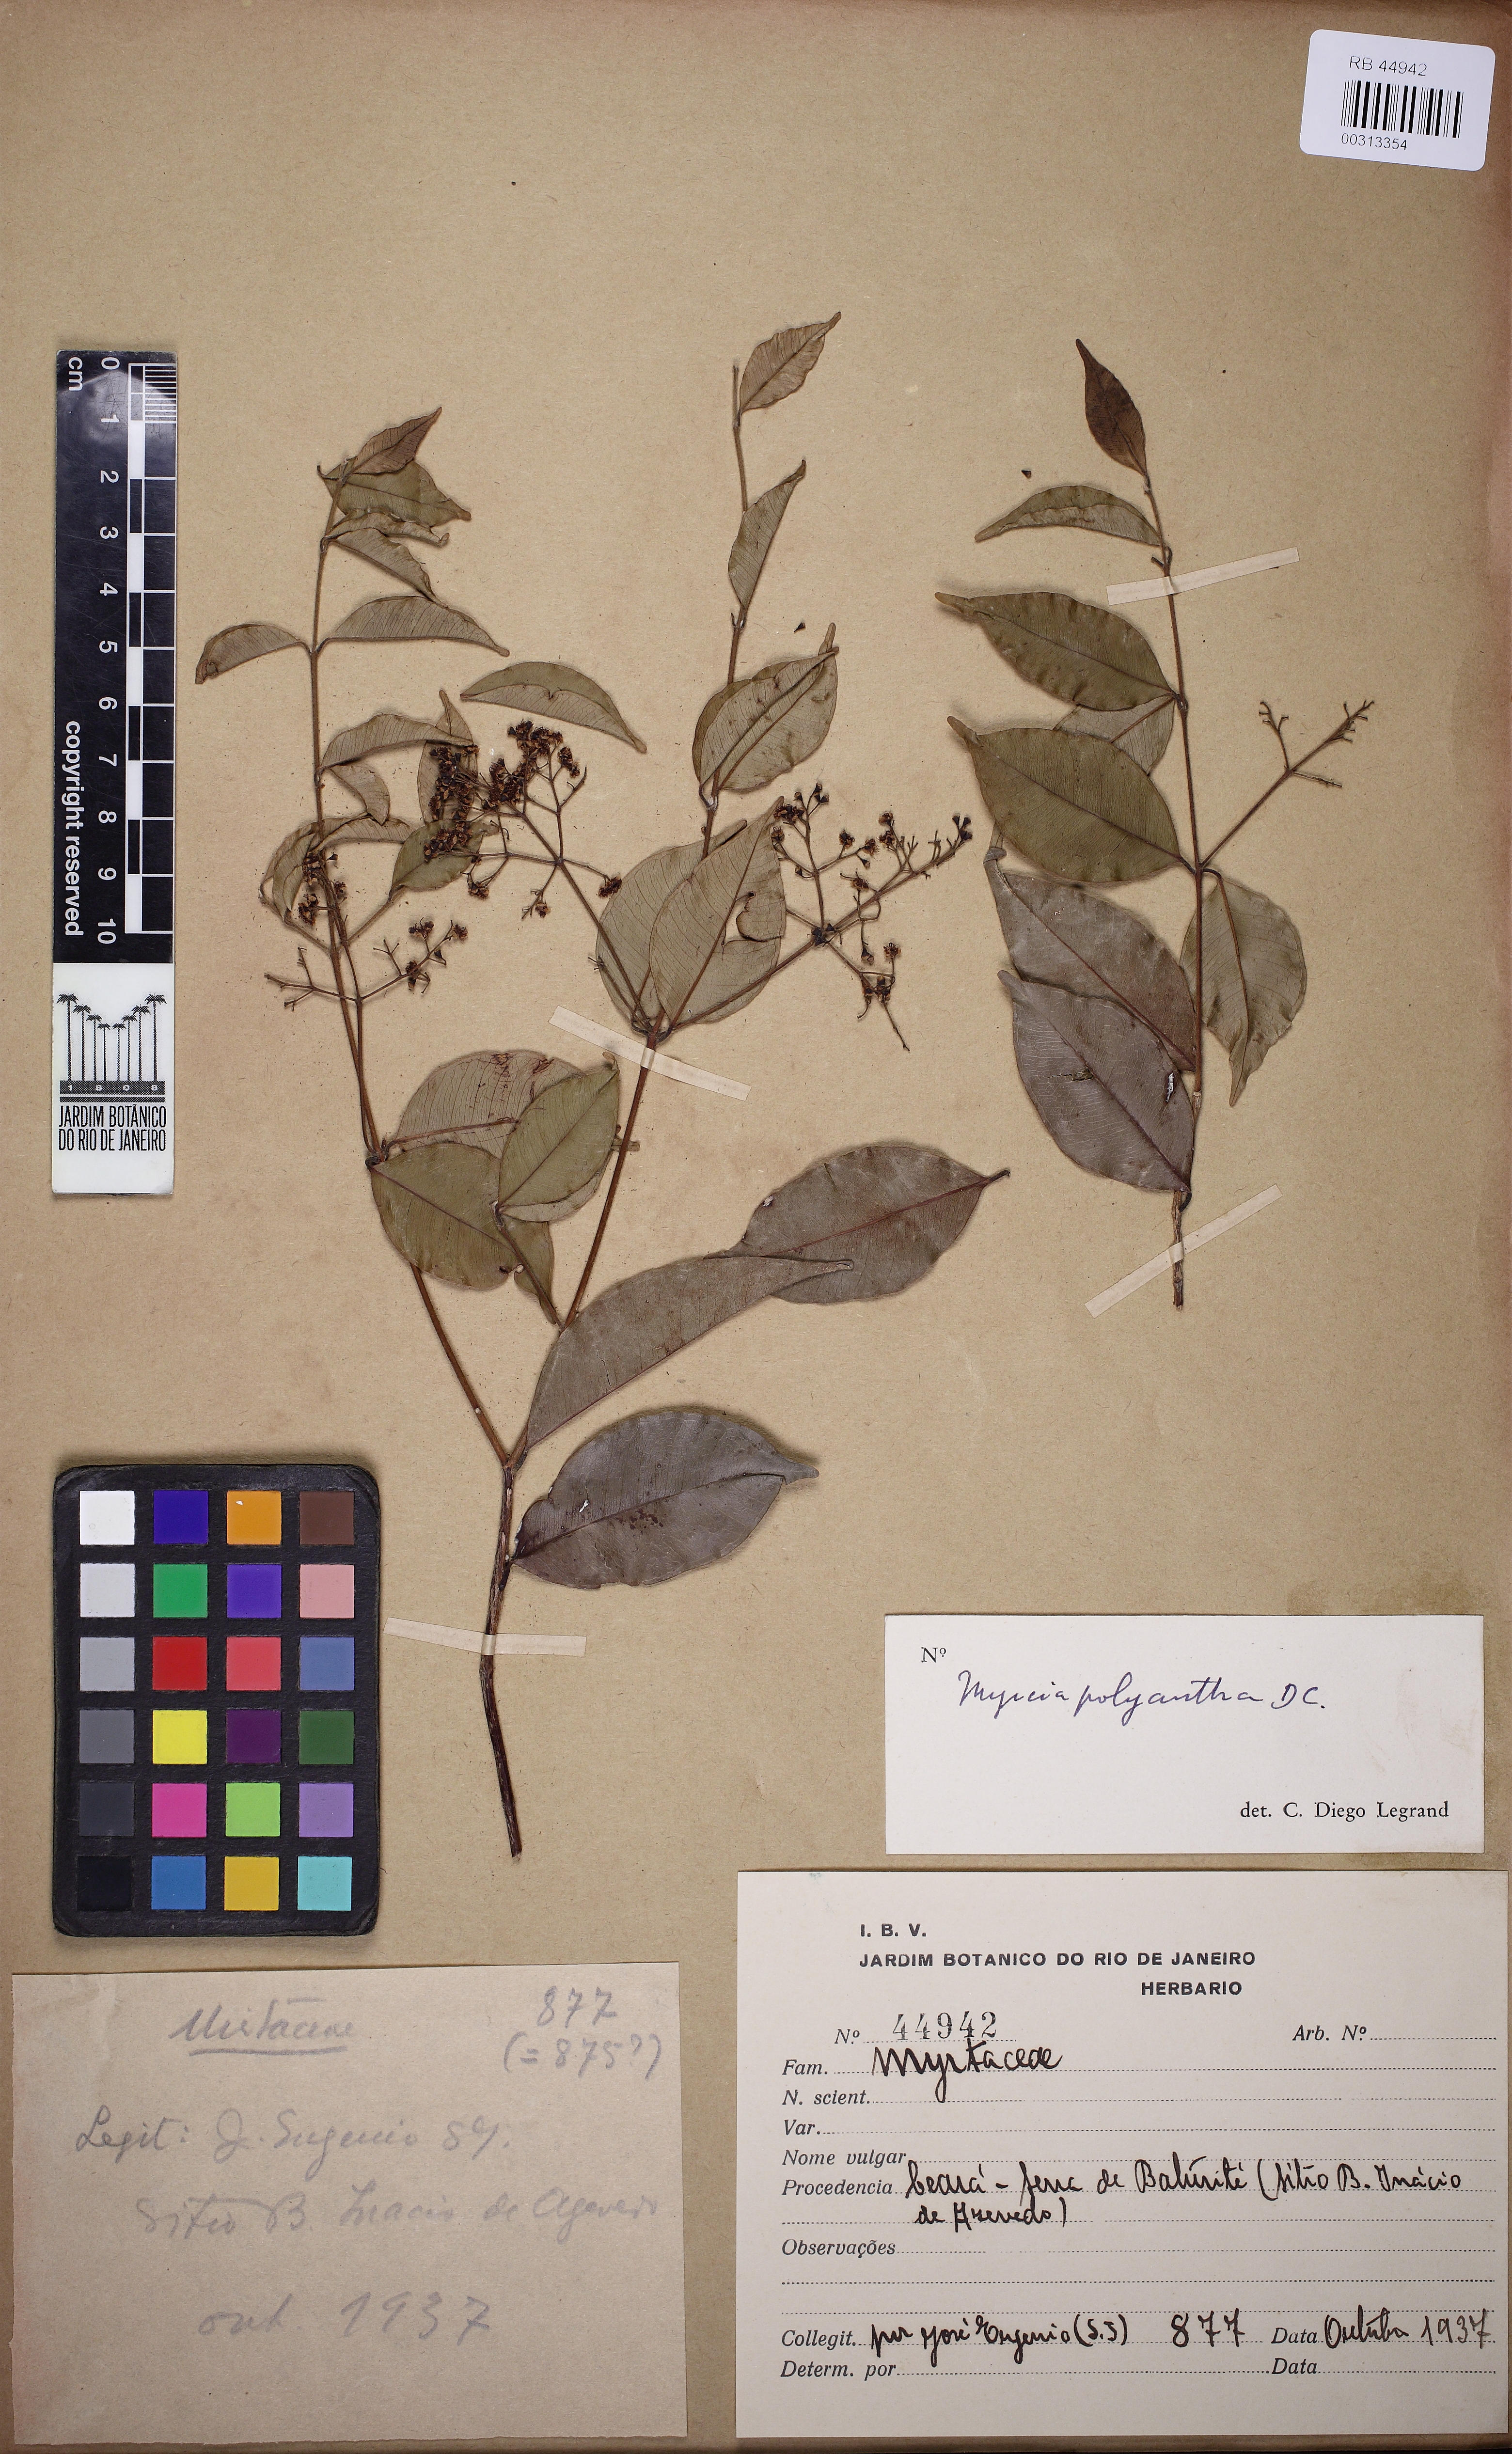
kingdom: Plantae
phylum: Tracheophyta
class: Magnoliopsida
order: Myrtales
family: Myrtaceae
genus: Myrcia
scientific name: Myrcia neopolyantha
